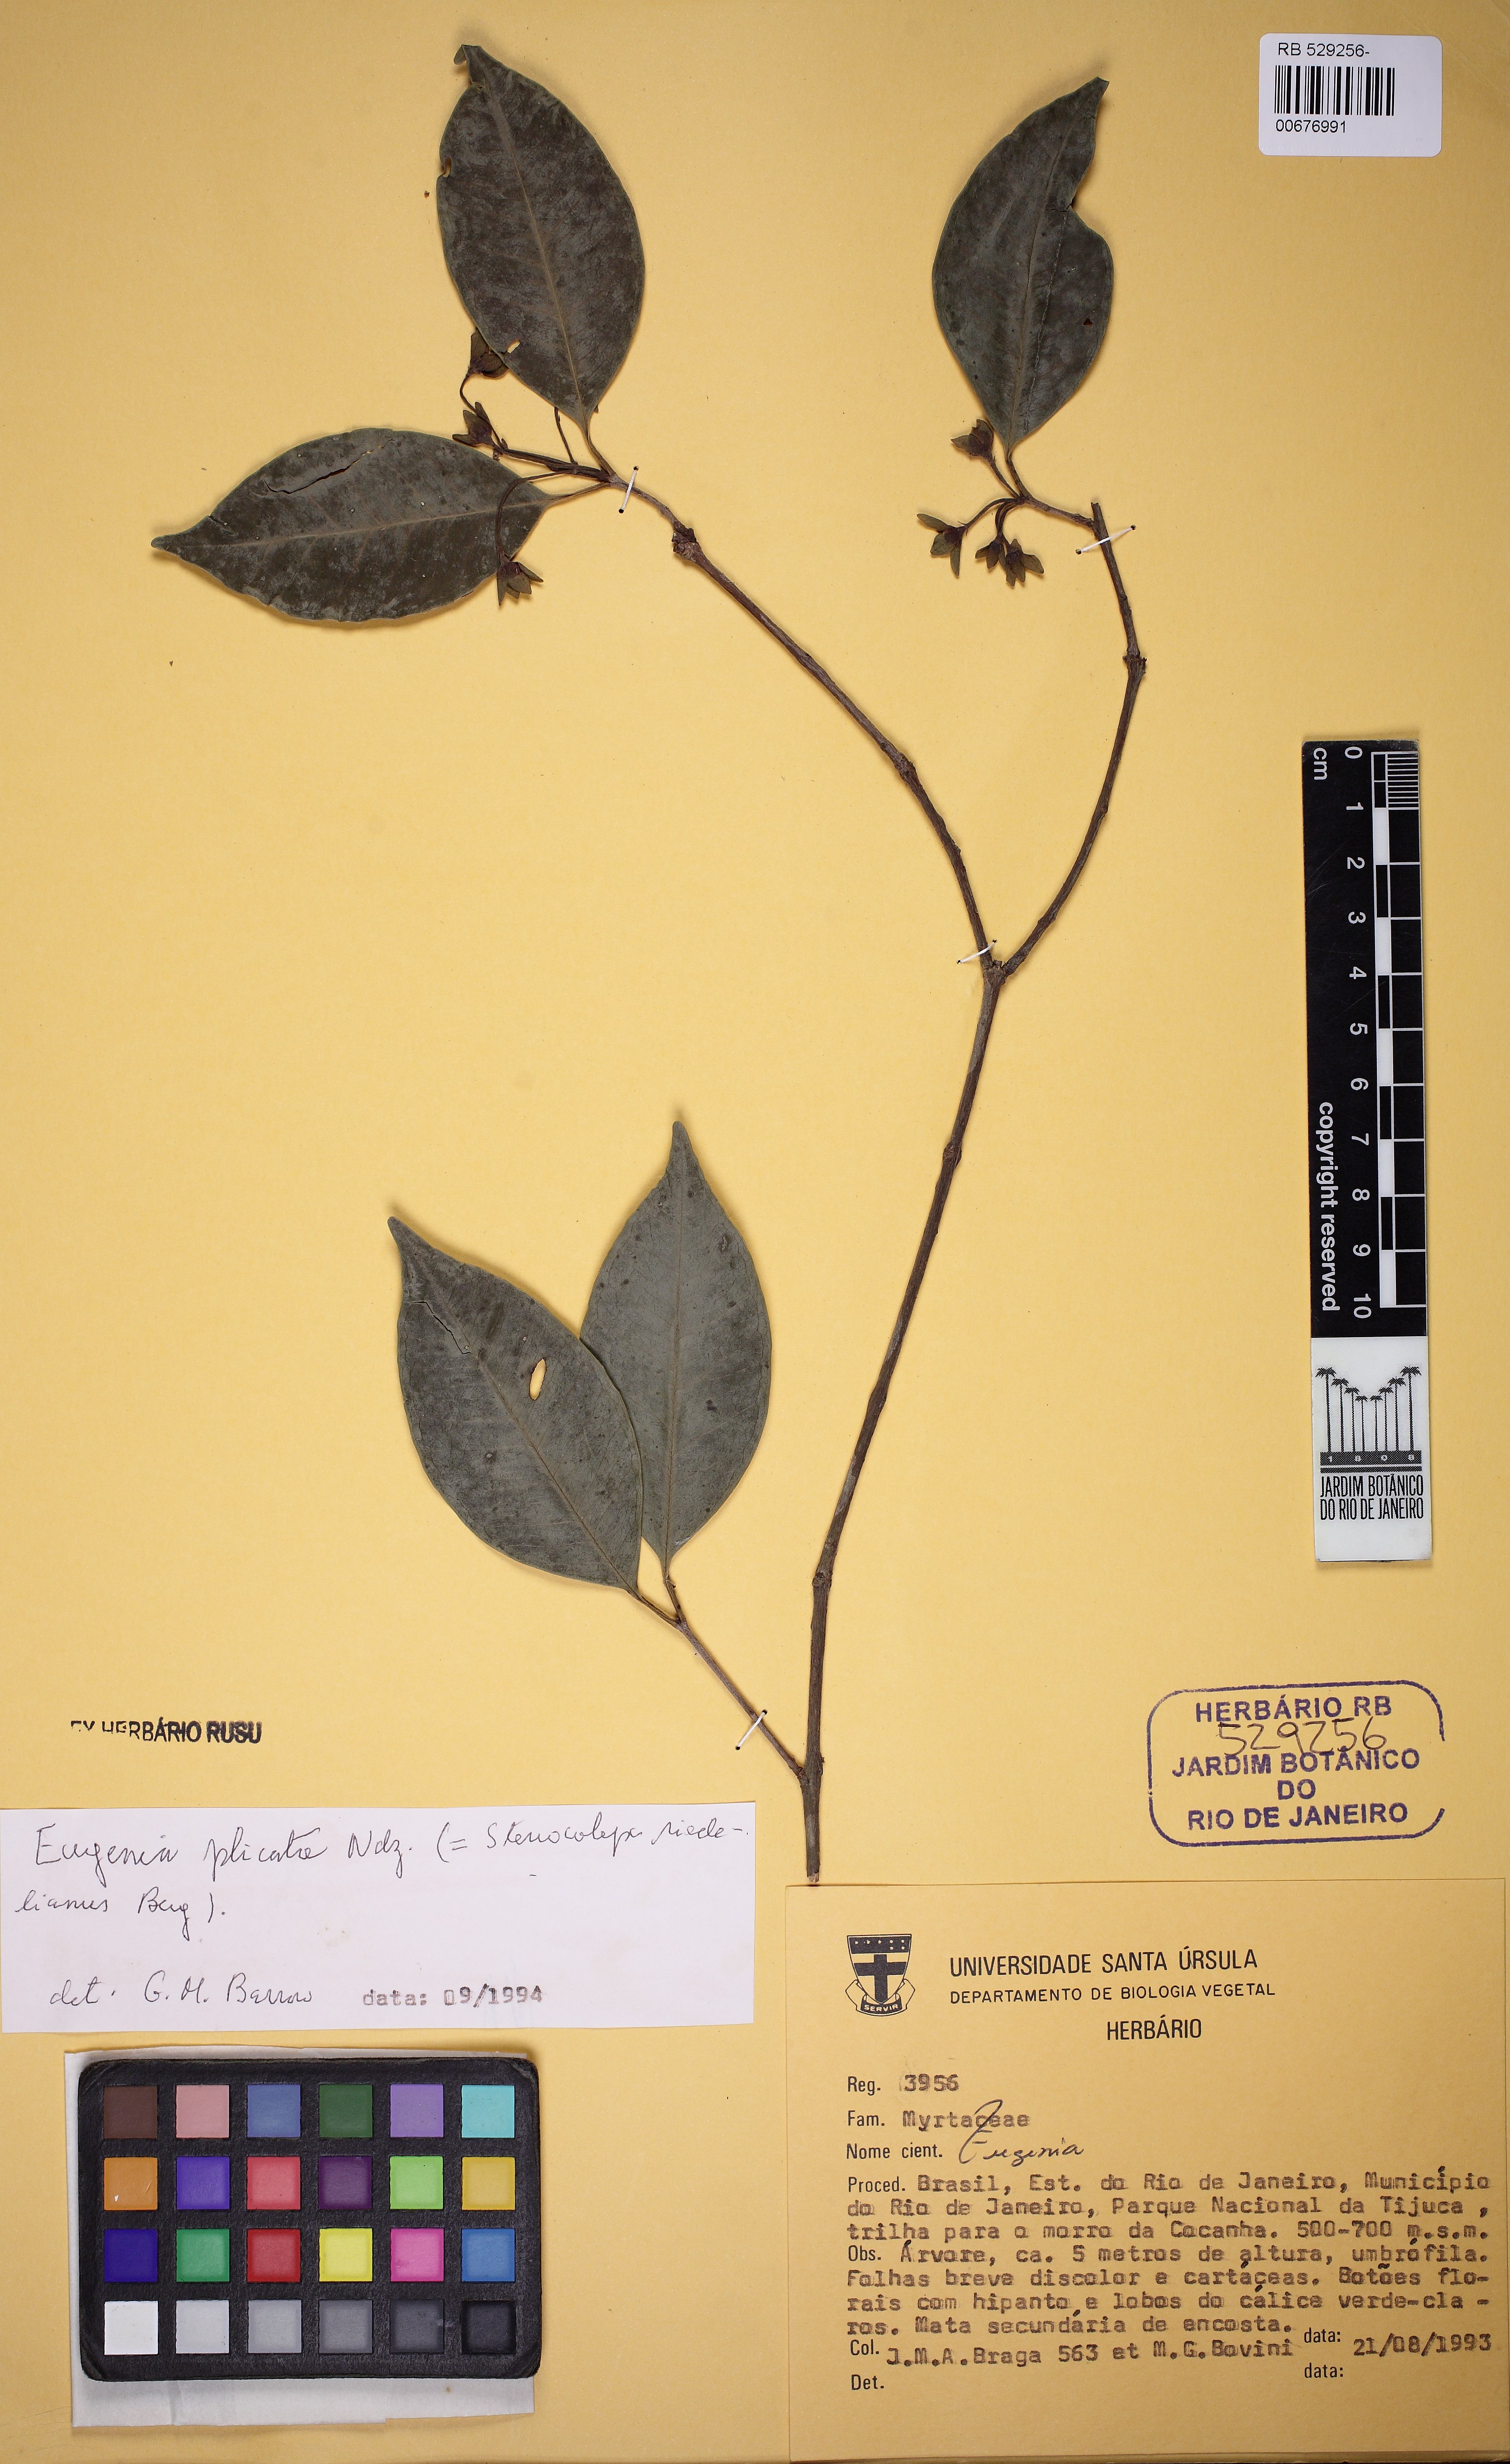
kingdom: Plantae
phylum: Tracheophyta
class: Magnoliopsida
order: Myrtales
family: Myrtaceae
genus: Eugenia
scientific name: Eugenia longipetiolata
